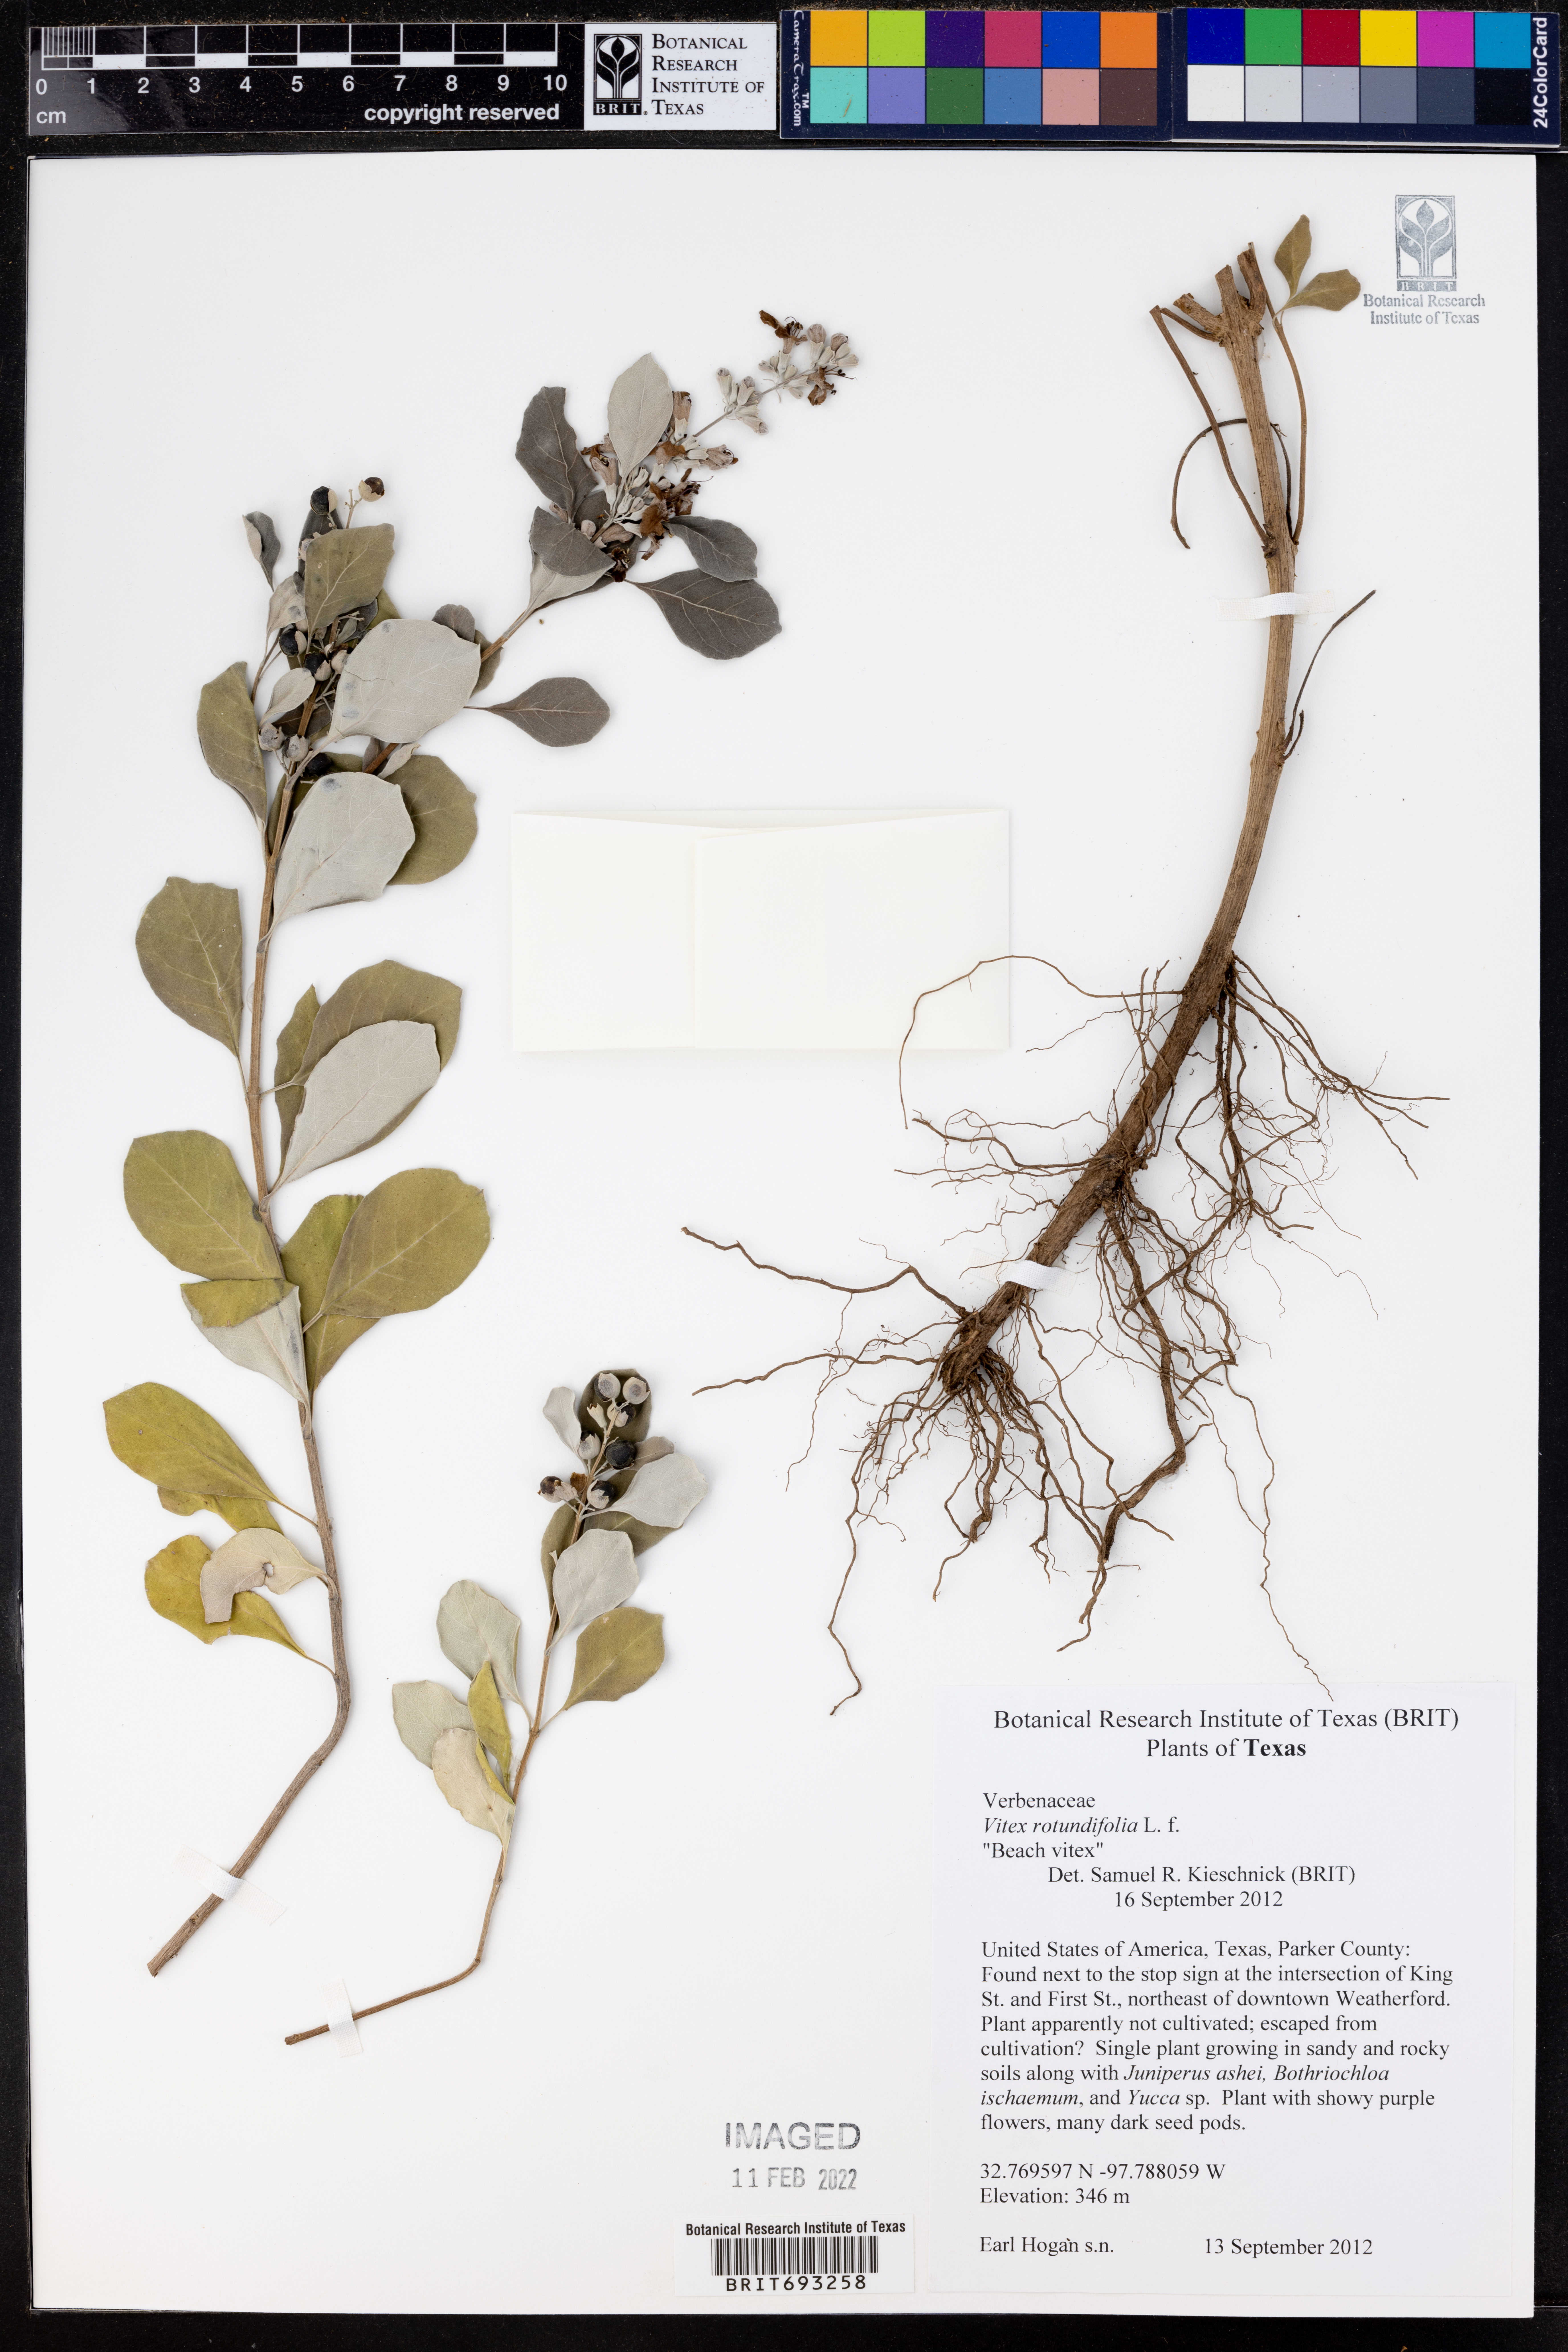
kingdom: Plantae
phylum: Tracheophyta
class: Magnoliopsida
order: Lamiales
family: Lamiaceae
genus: Vitex
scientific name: Vitex rotundifolia
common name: Beach vitex
